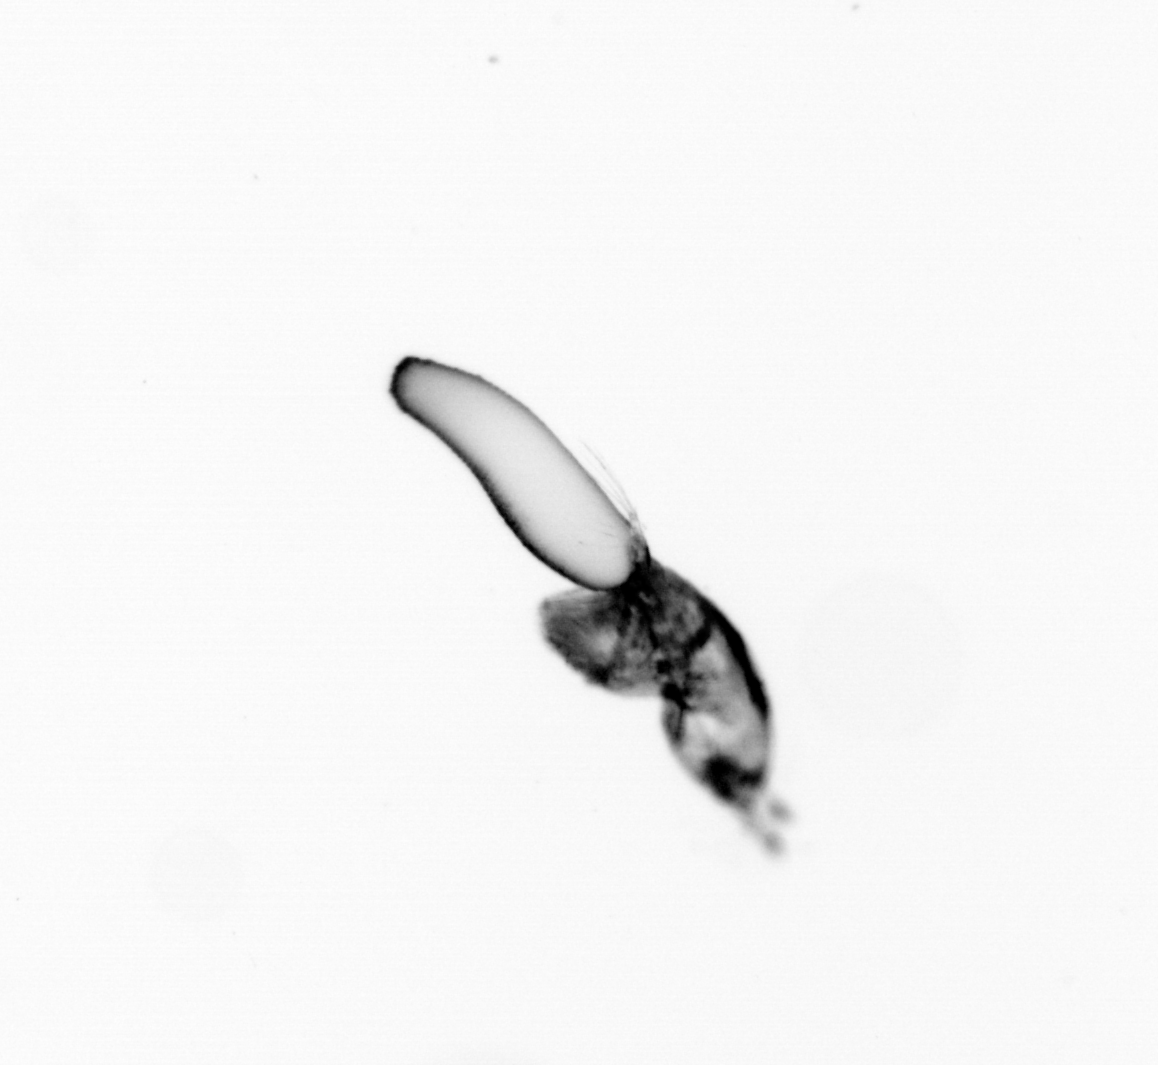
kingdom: Animalia
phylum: Arthropoda
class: Copepoda
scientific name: Copepoda
